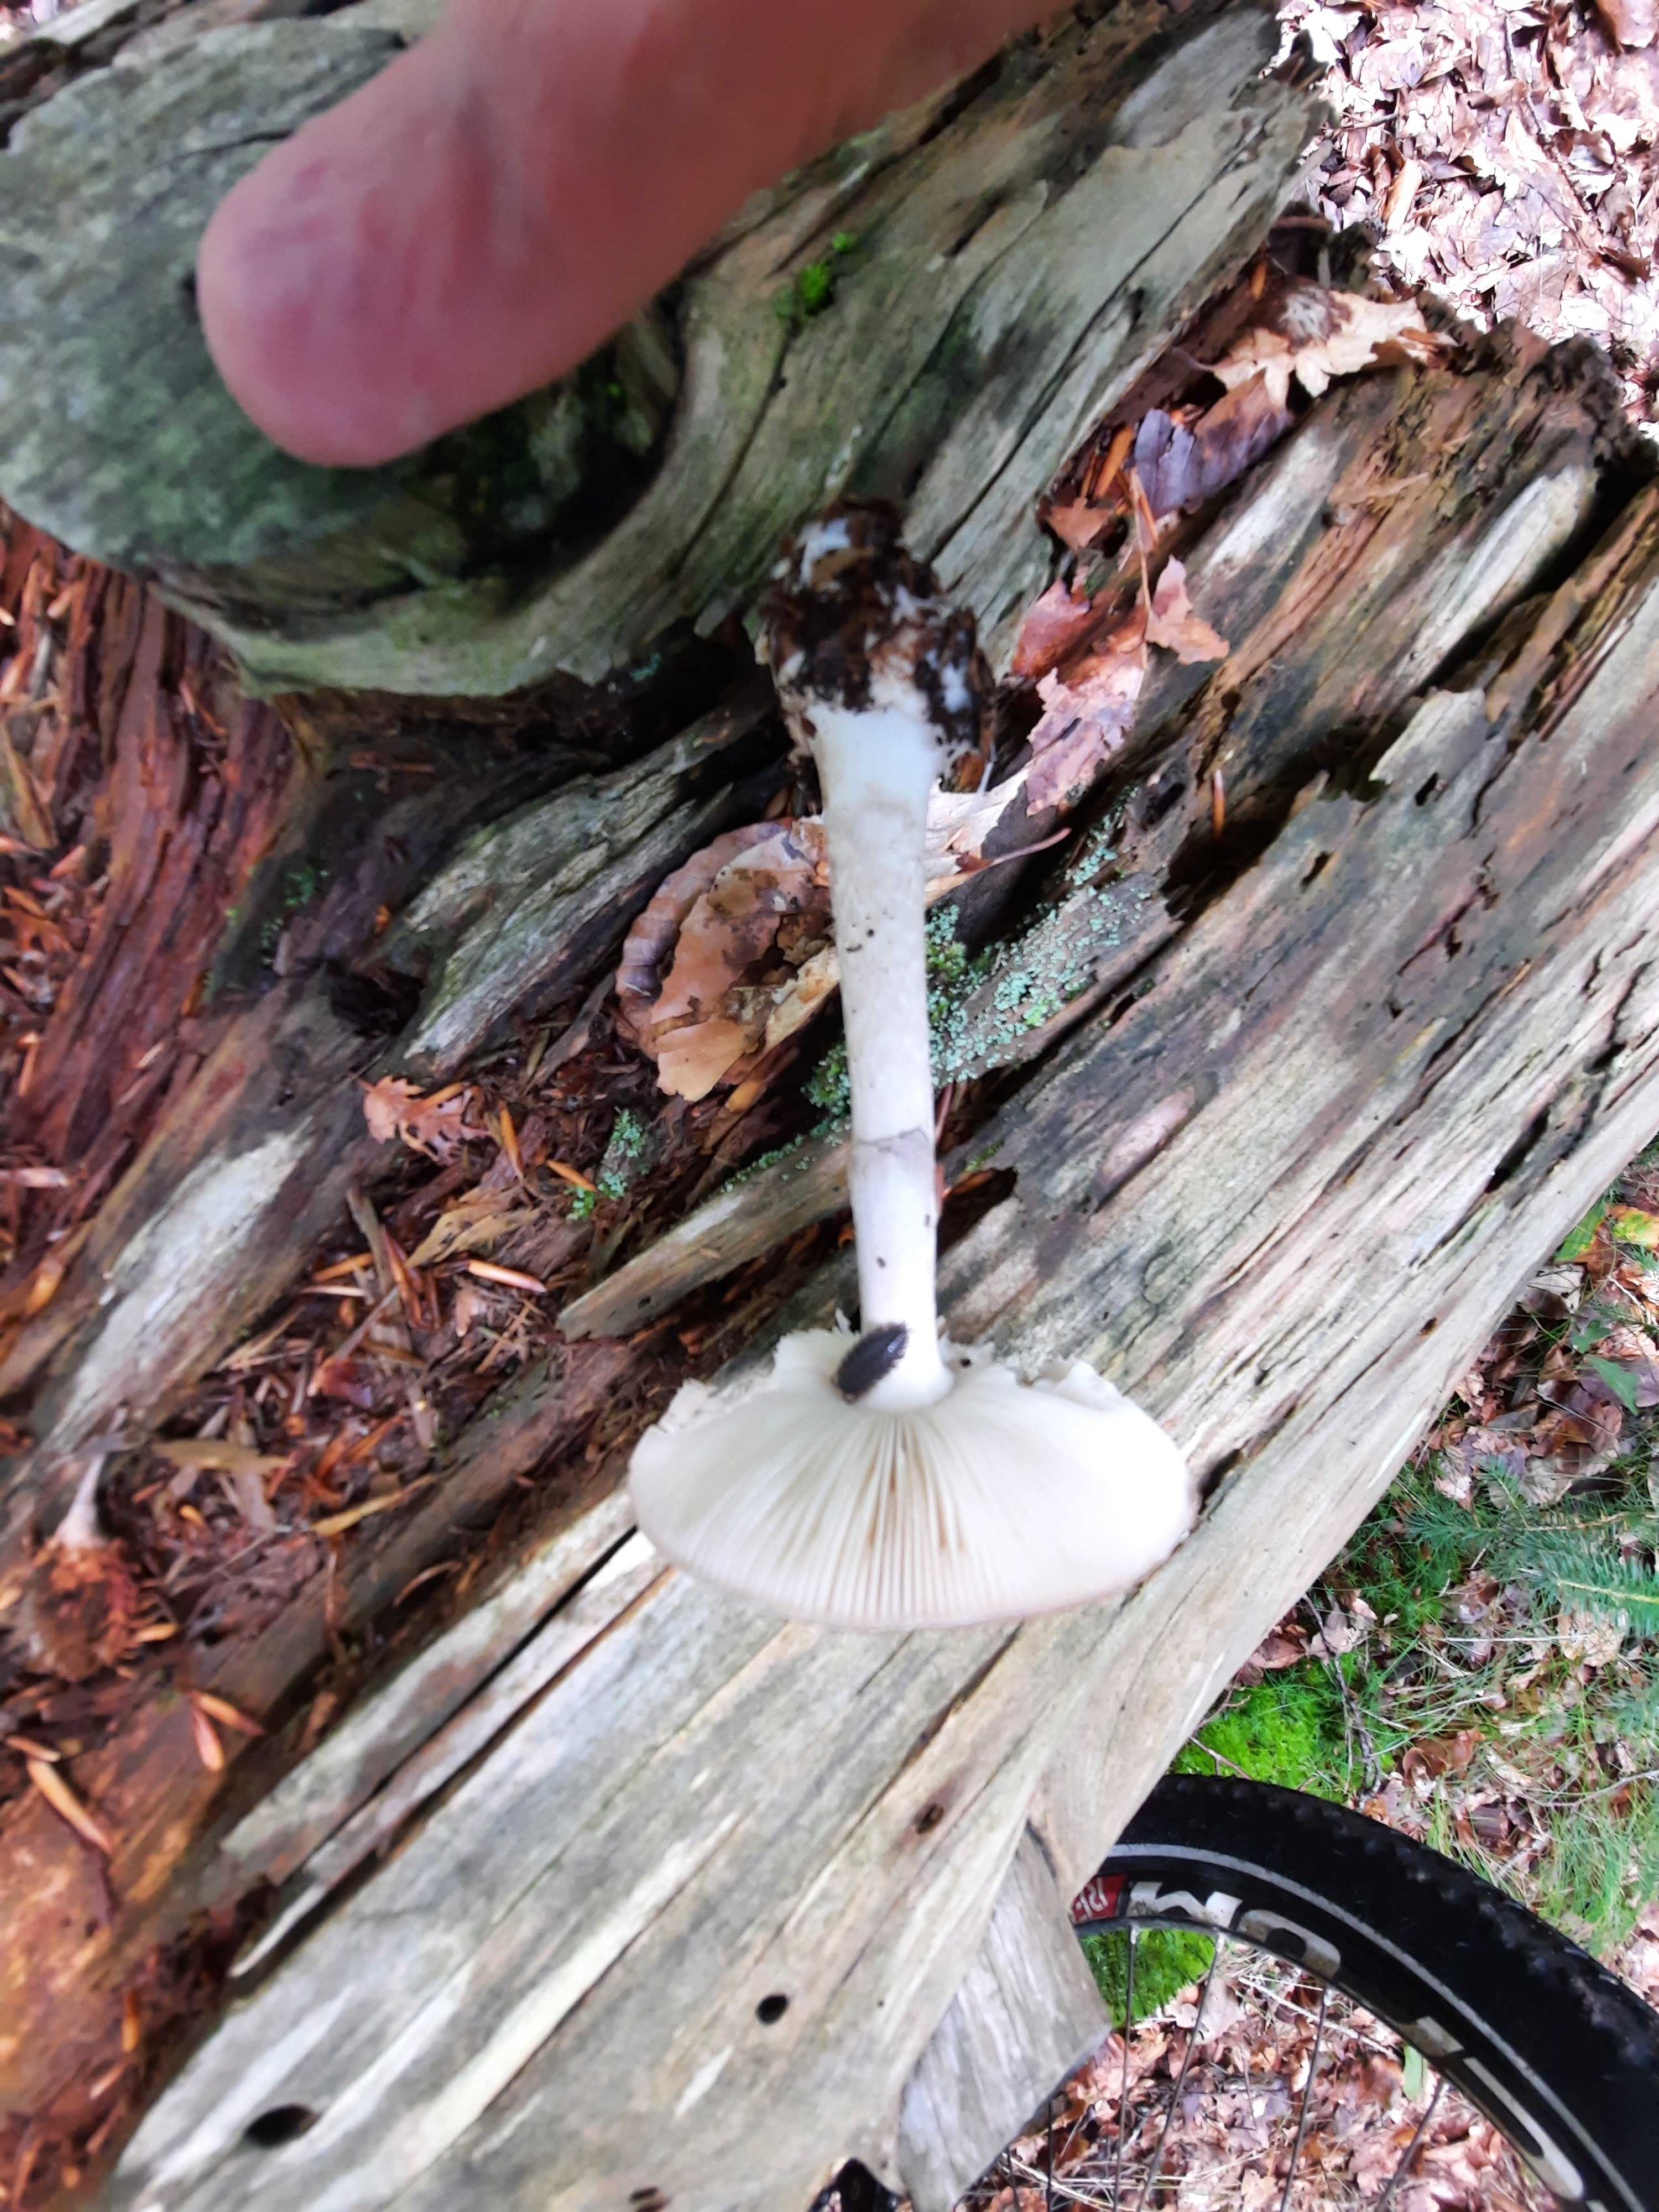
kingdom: Fungi
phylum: Basidiomycota
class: Agaricomycetes
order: Agaricales
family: Amanitaceae
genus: Amanita
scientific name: Amanita porphyria
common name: porfyr-fluesvamp
